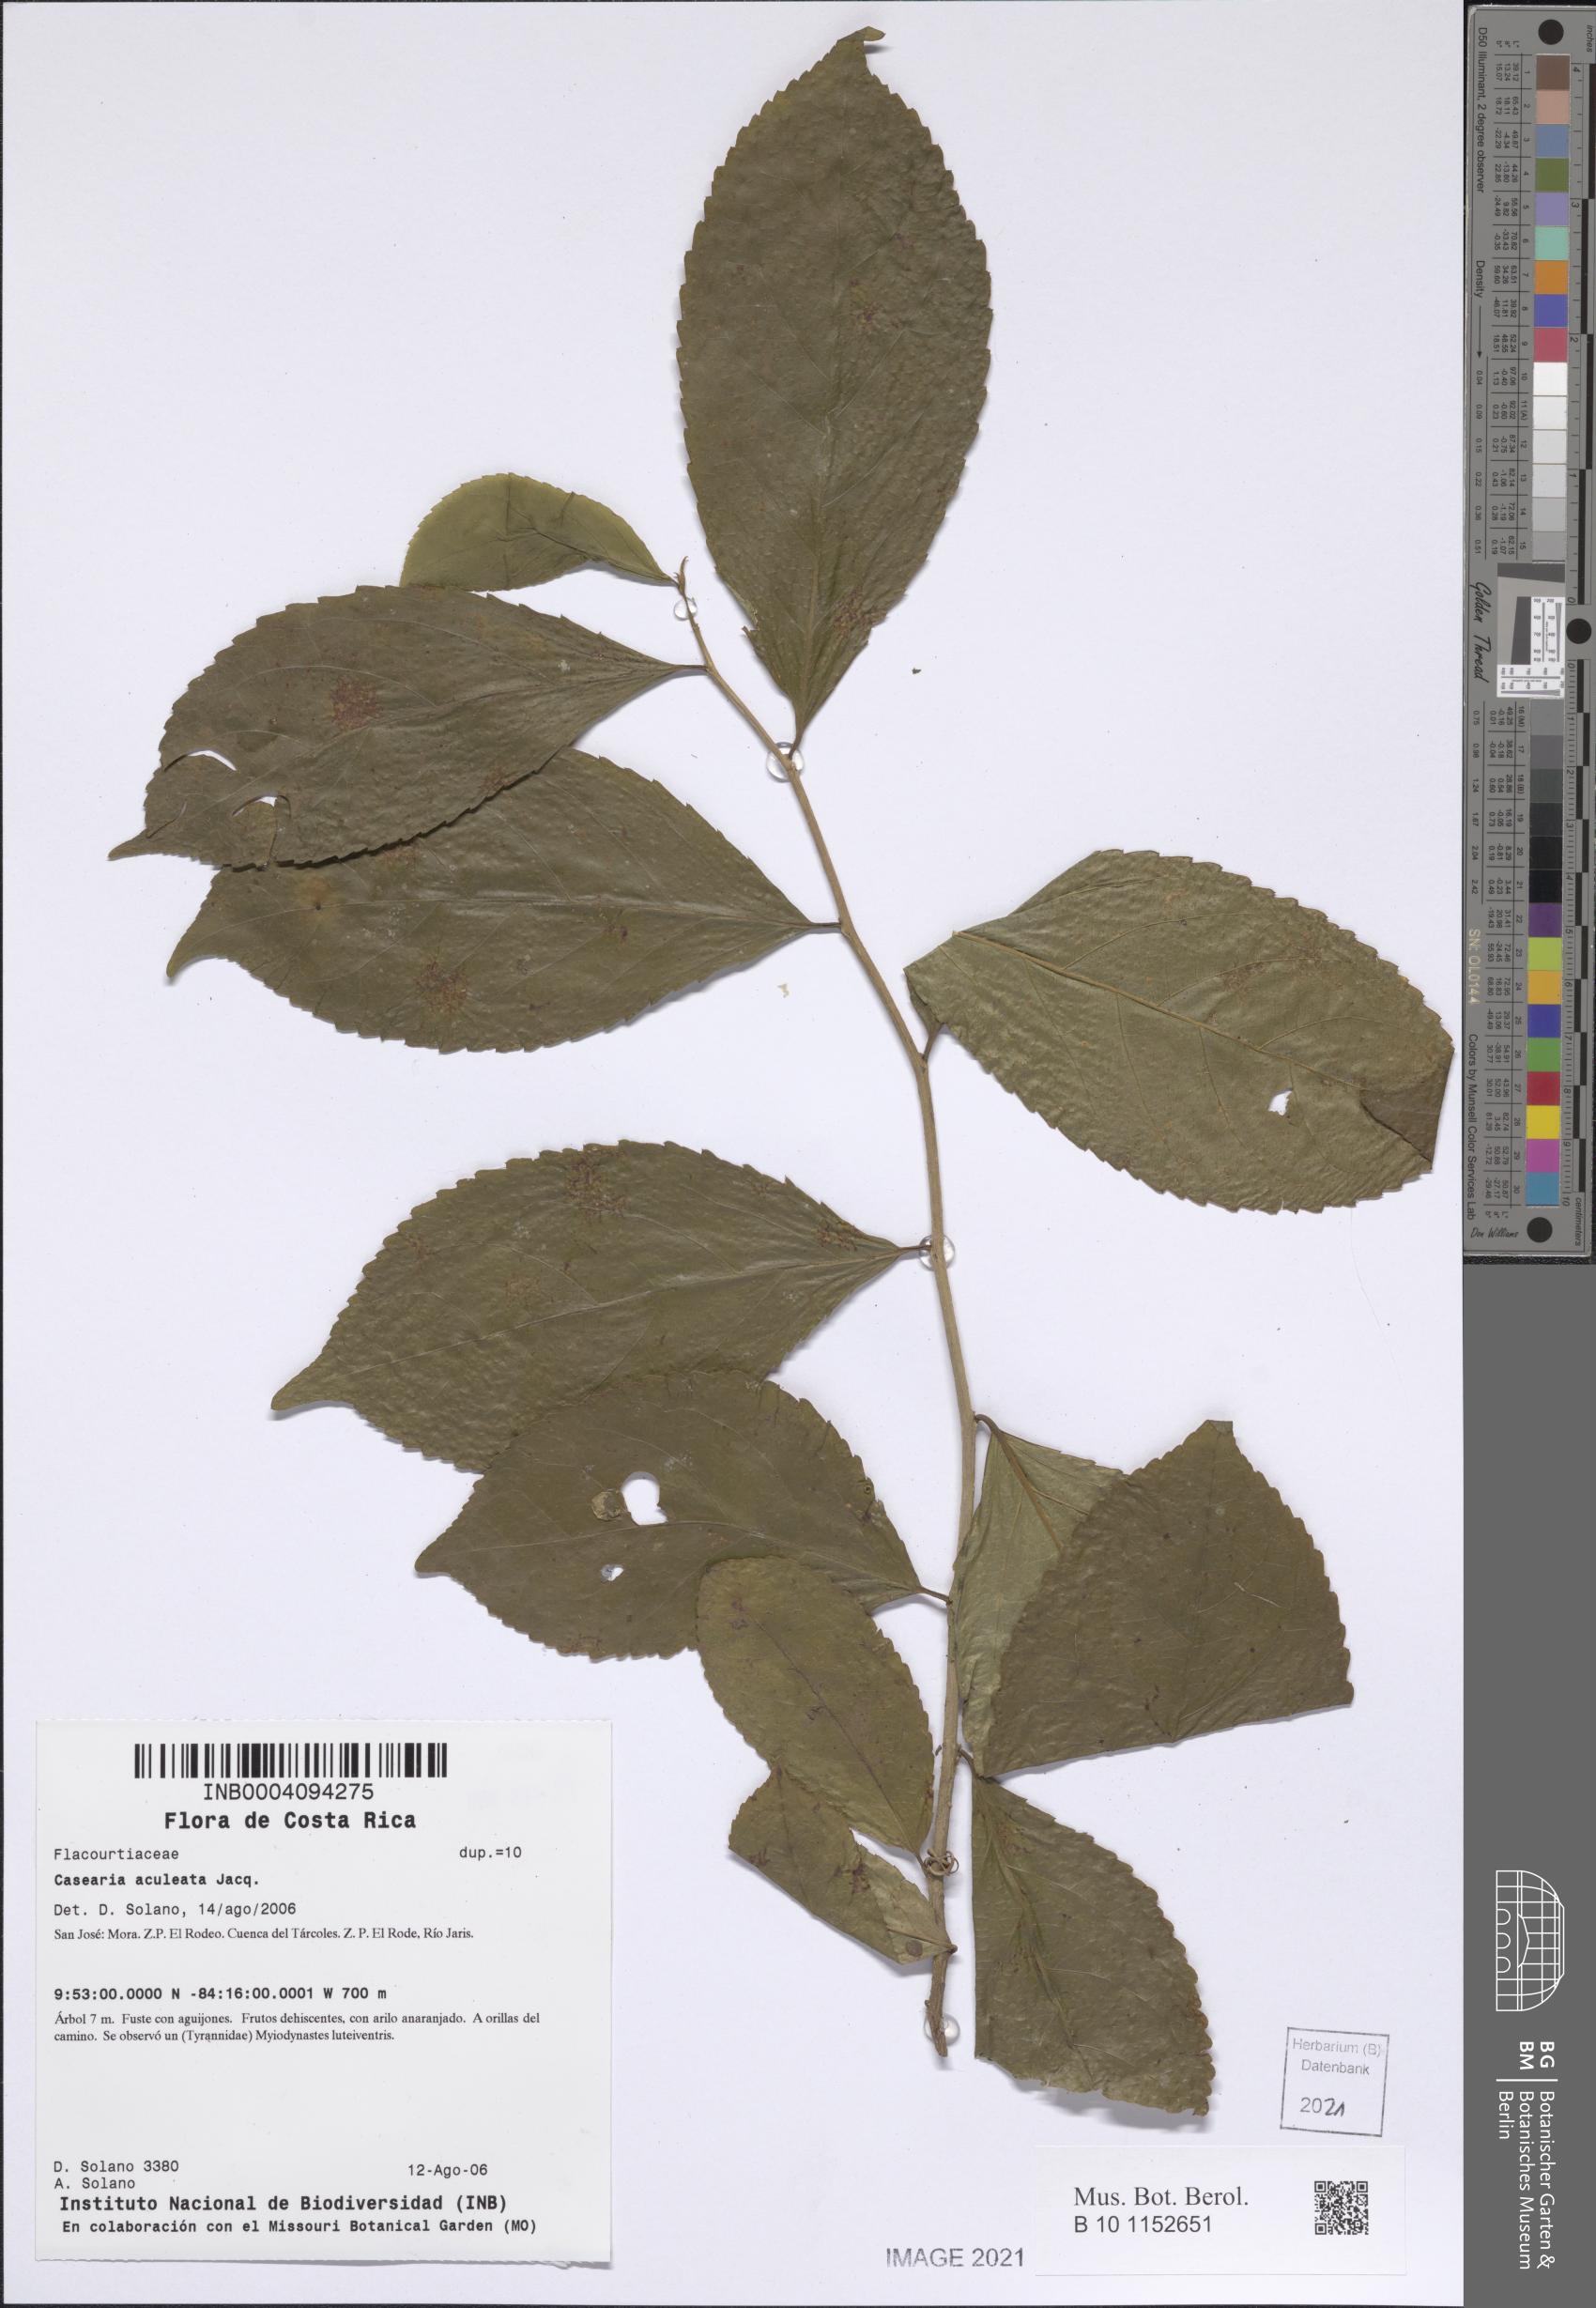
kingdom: Plantae
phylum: Tracheophyta
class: Magnoliopsida
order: Malpighiales
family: Salicaceae
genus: Casearia
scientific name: Casearia stjohnii
